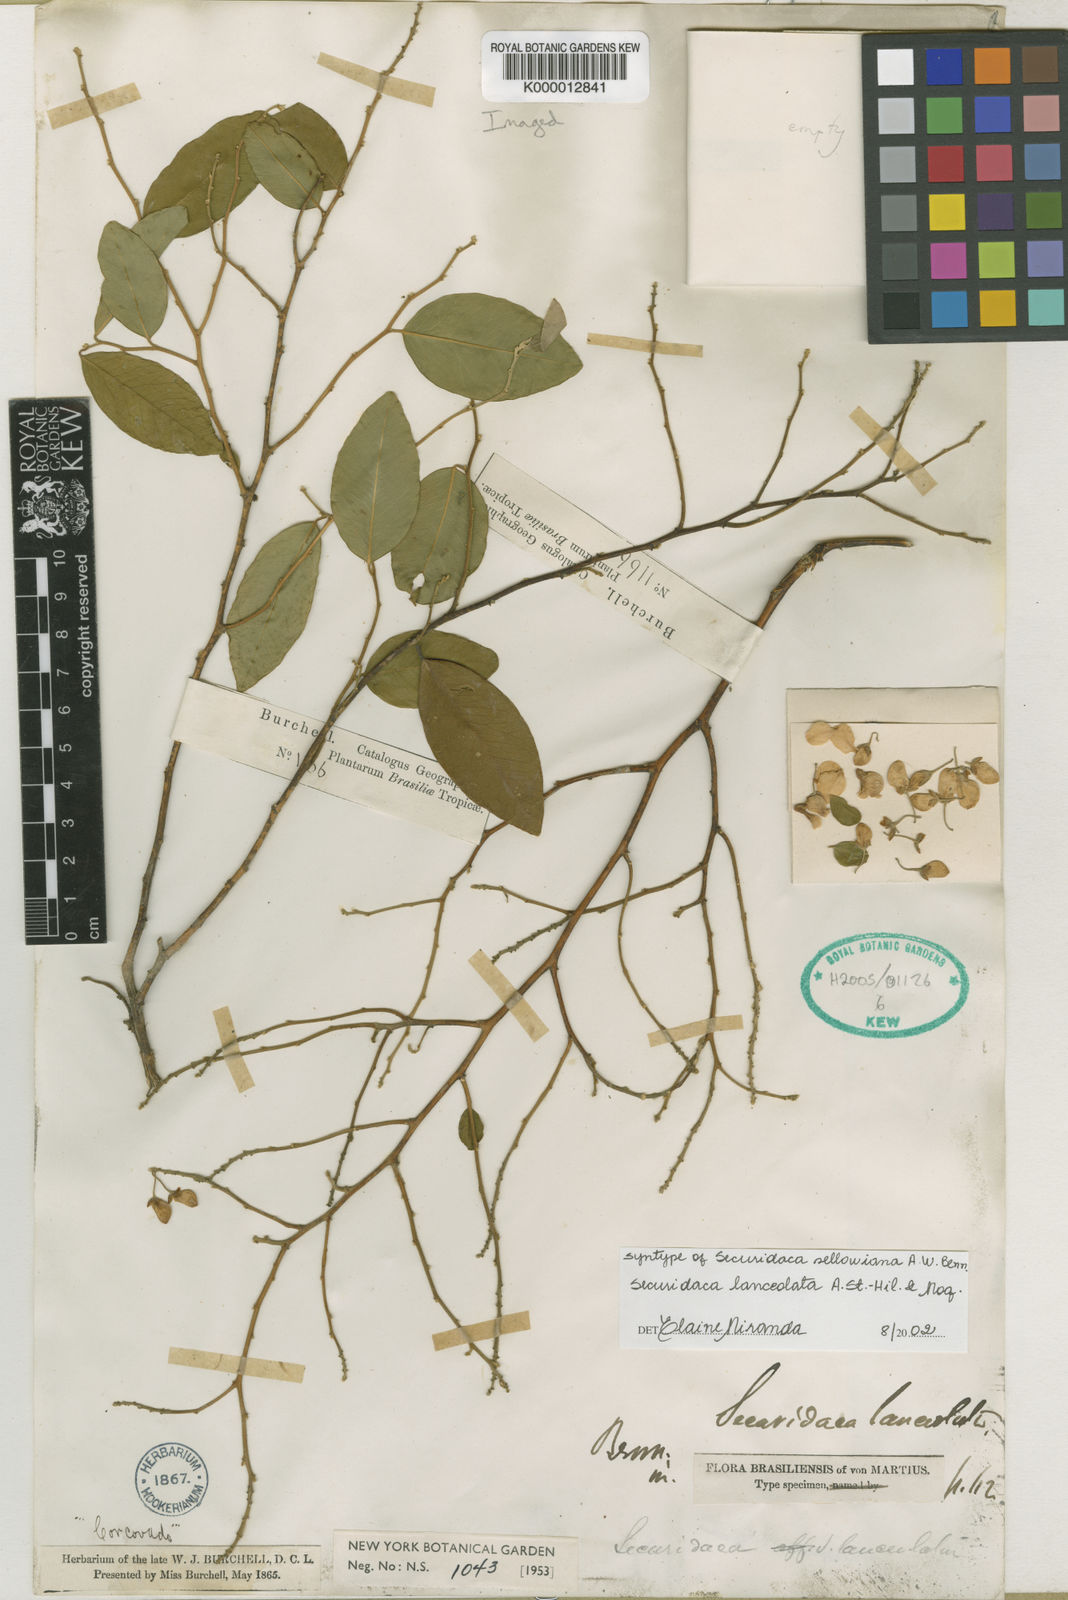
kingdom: Plantae
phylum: Tracheophyta
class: Magnoliopsida
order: Fabales
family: Polygalaceae
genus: Securidaca
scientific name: Securidaca lanceolata
